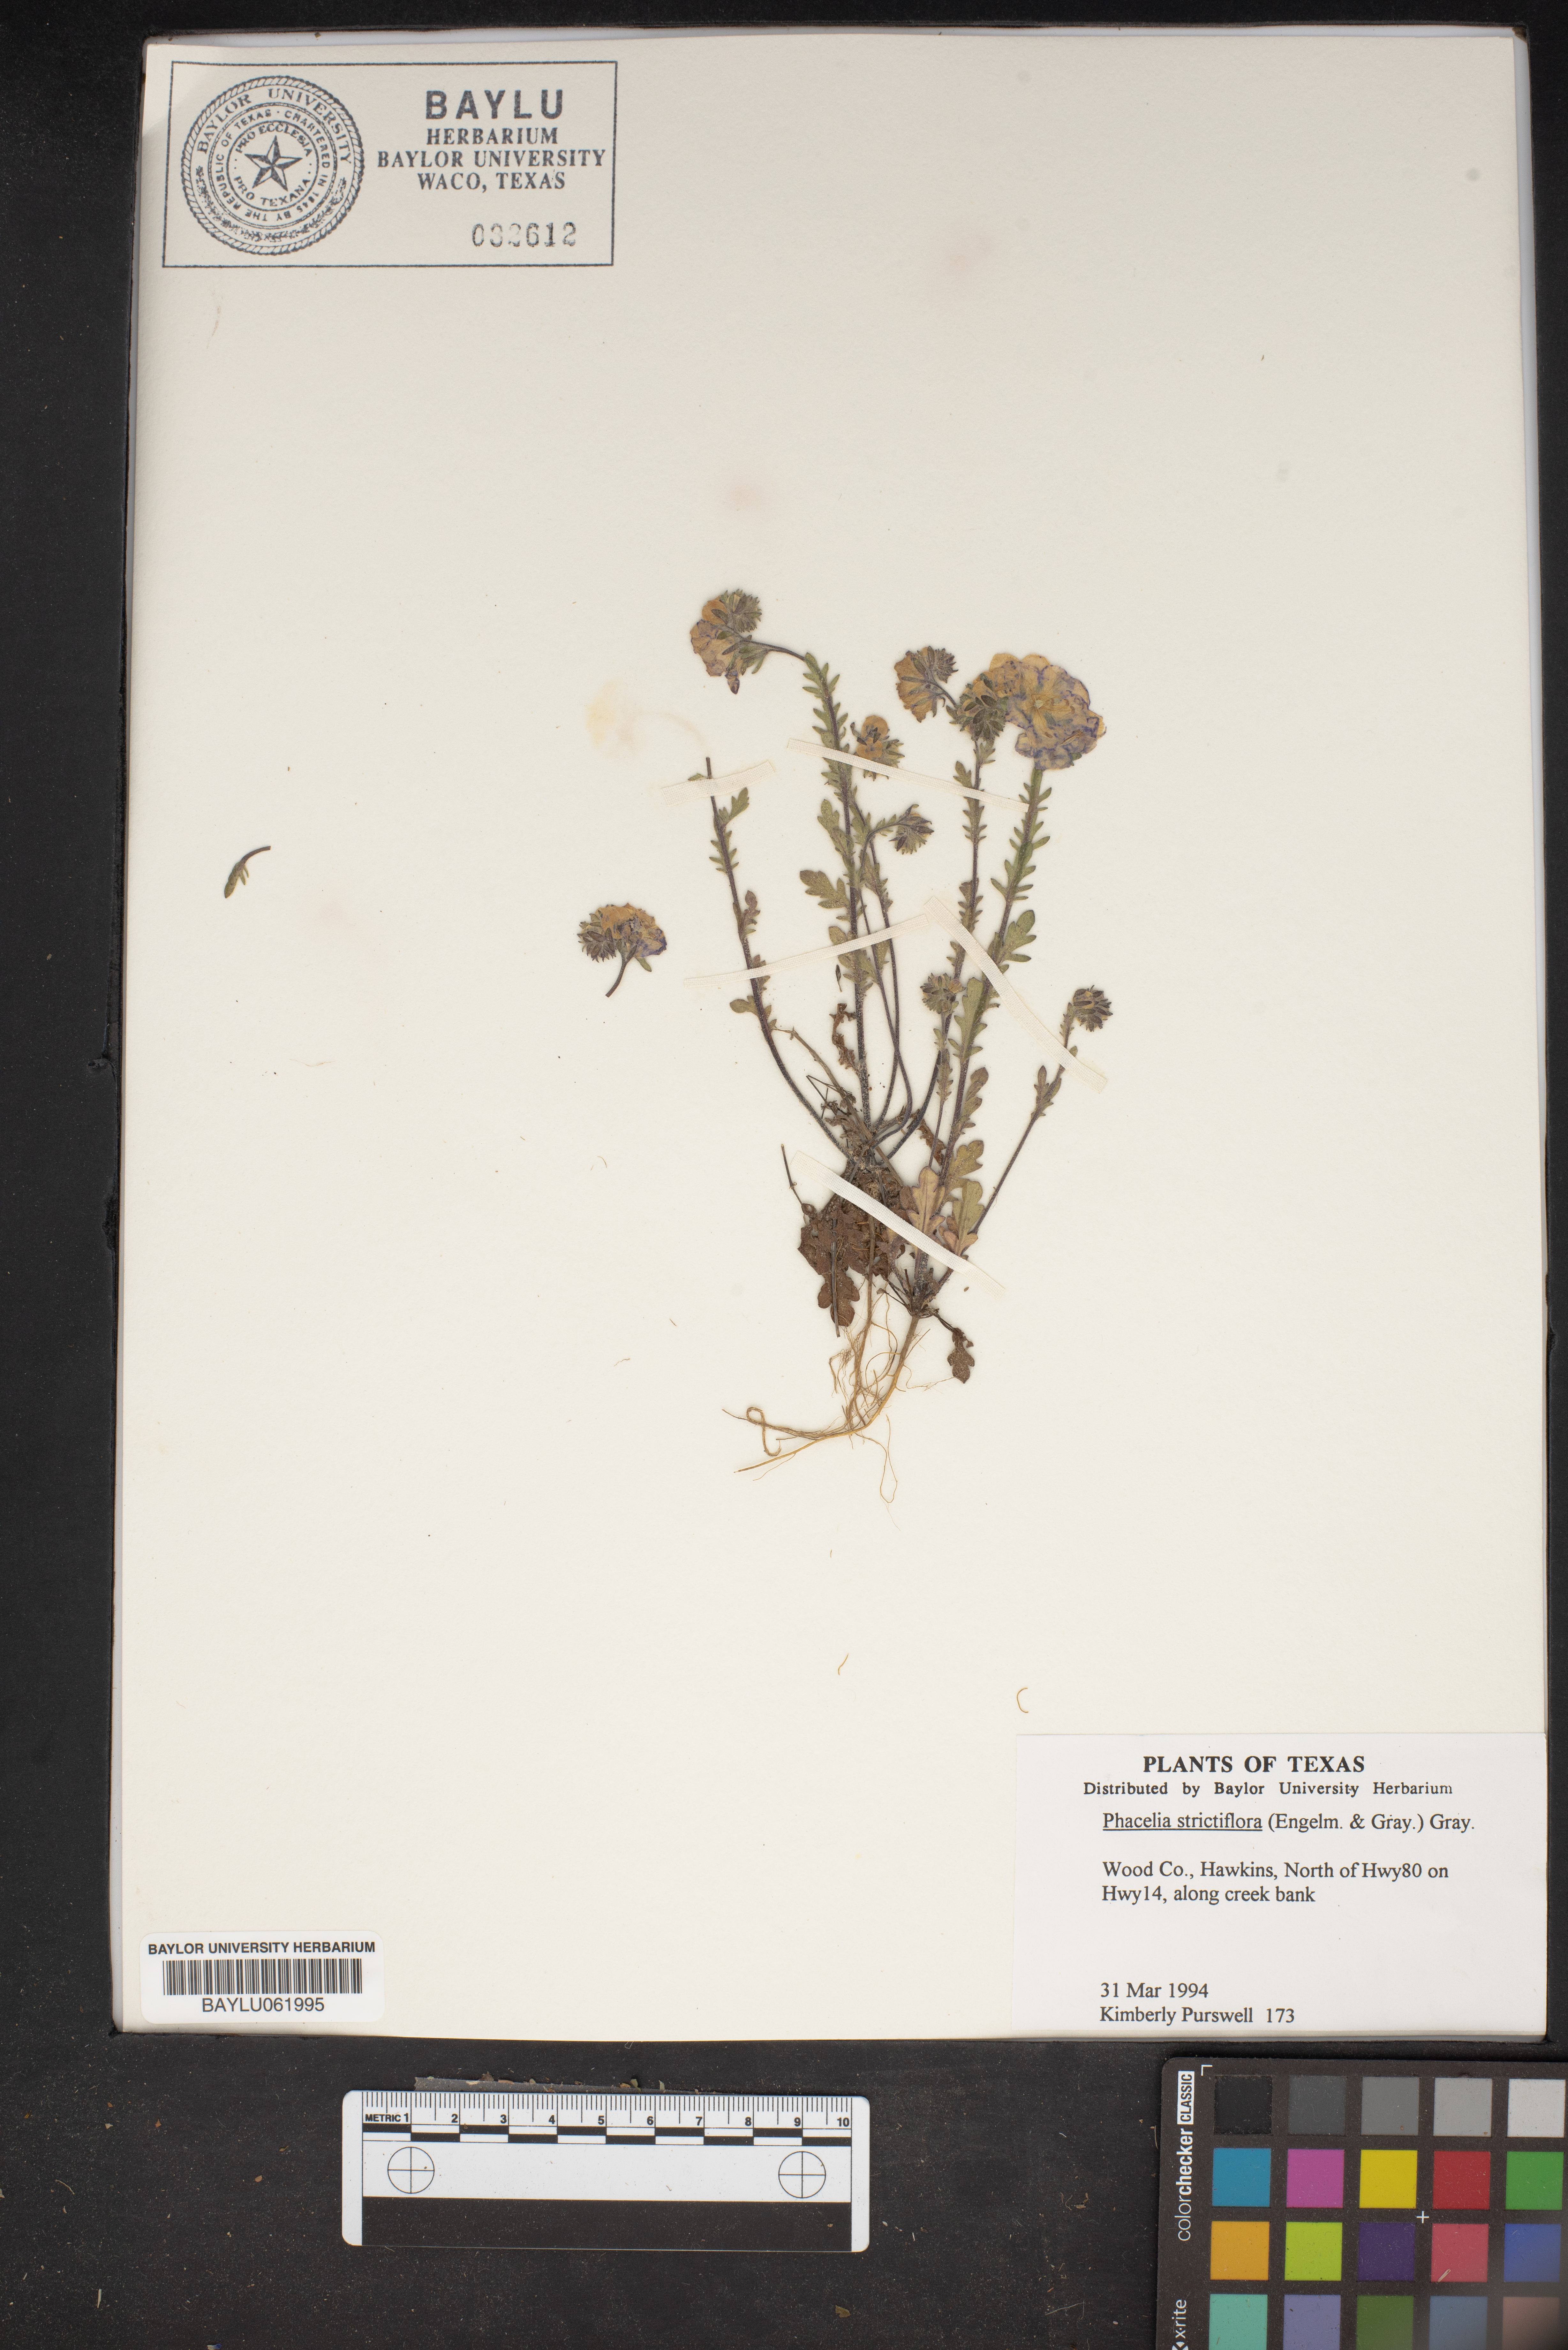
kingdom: Plantae
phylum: Tracheophyta
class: Magnoliopsida
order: Boraginales
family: Hydrophyllaceae
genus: Phacelia
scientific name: Phacelia strictiflora
